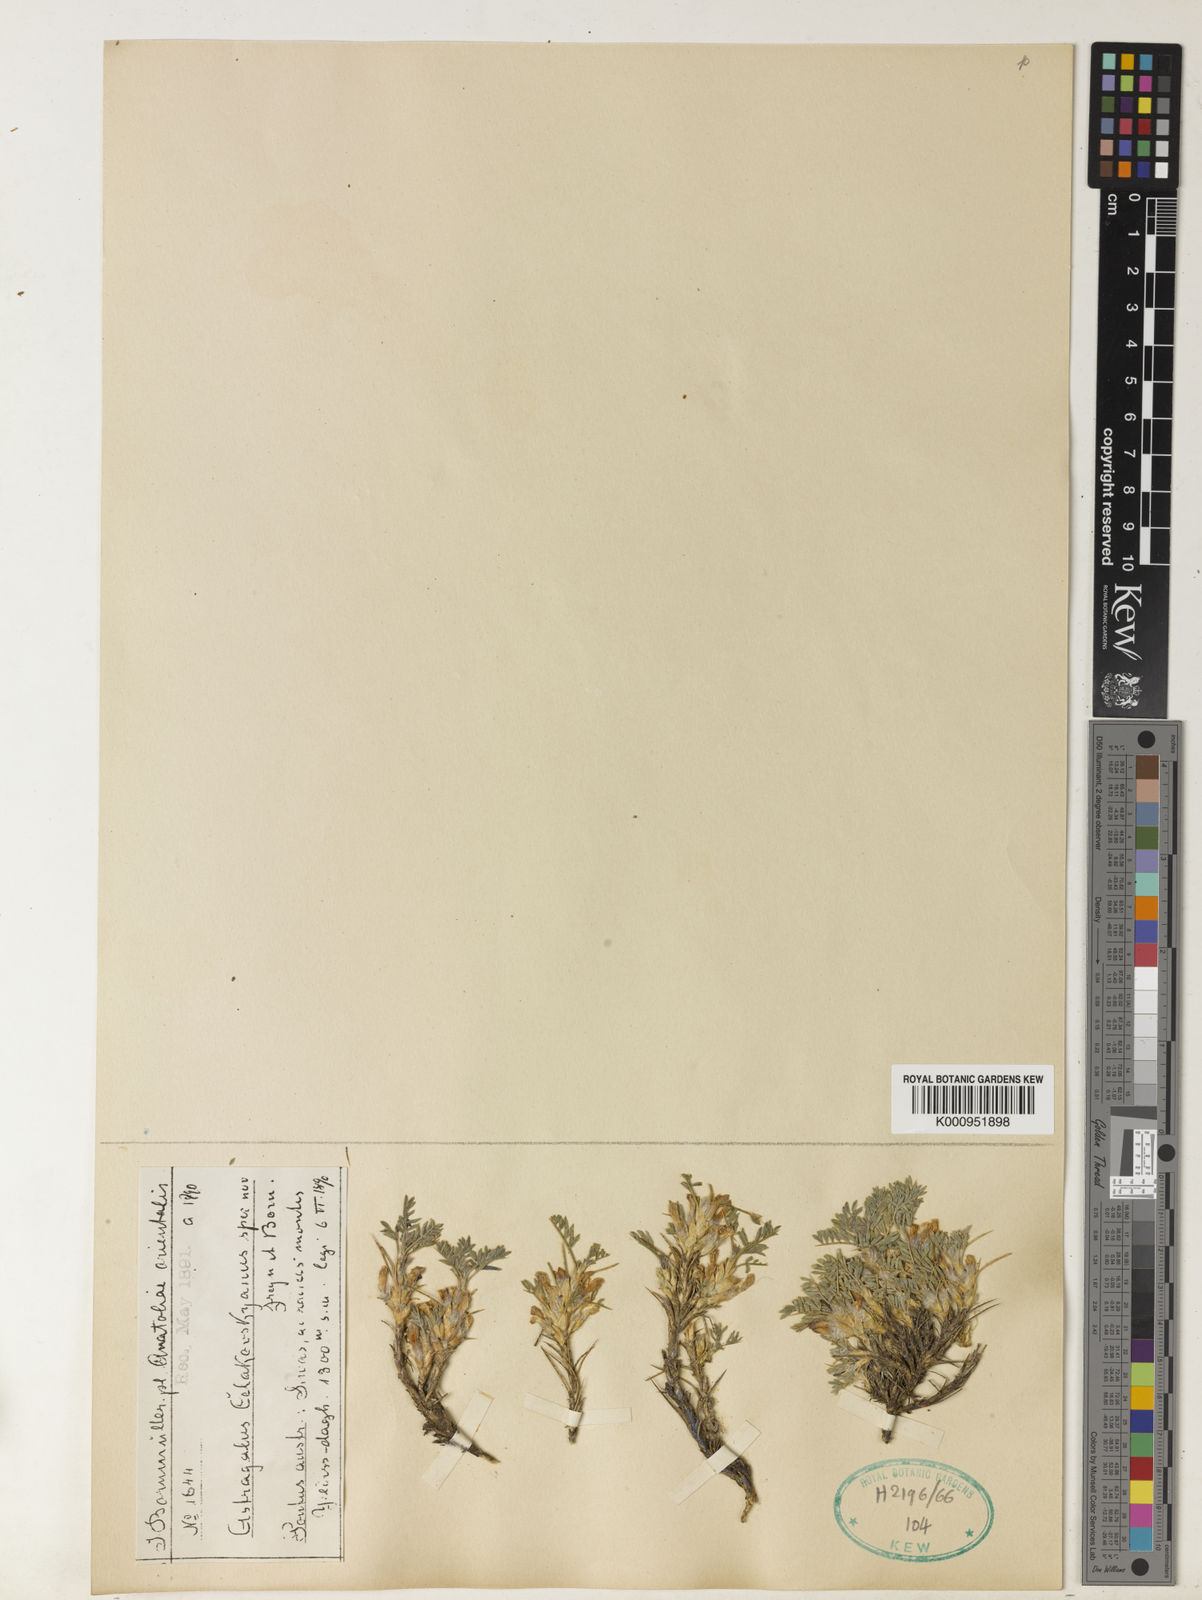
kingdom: Plantae
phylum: Tracheophyta
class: Magnoliopsida
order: Fabales
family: Fabaceae
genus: Astragalus
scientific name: Astragalus
